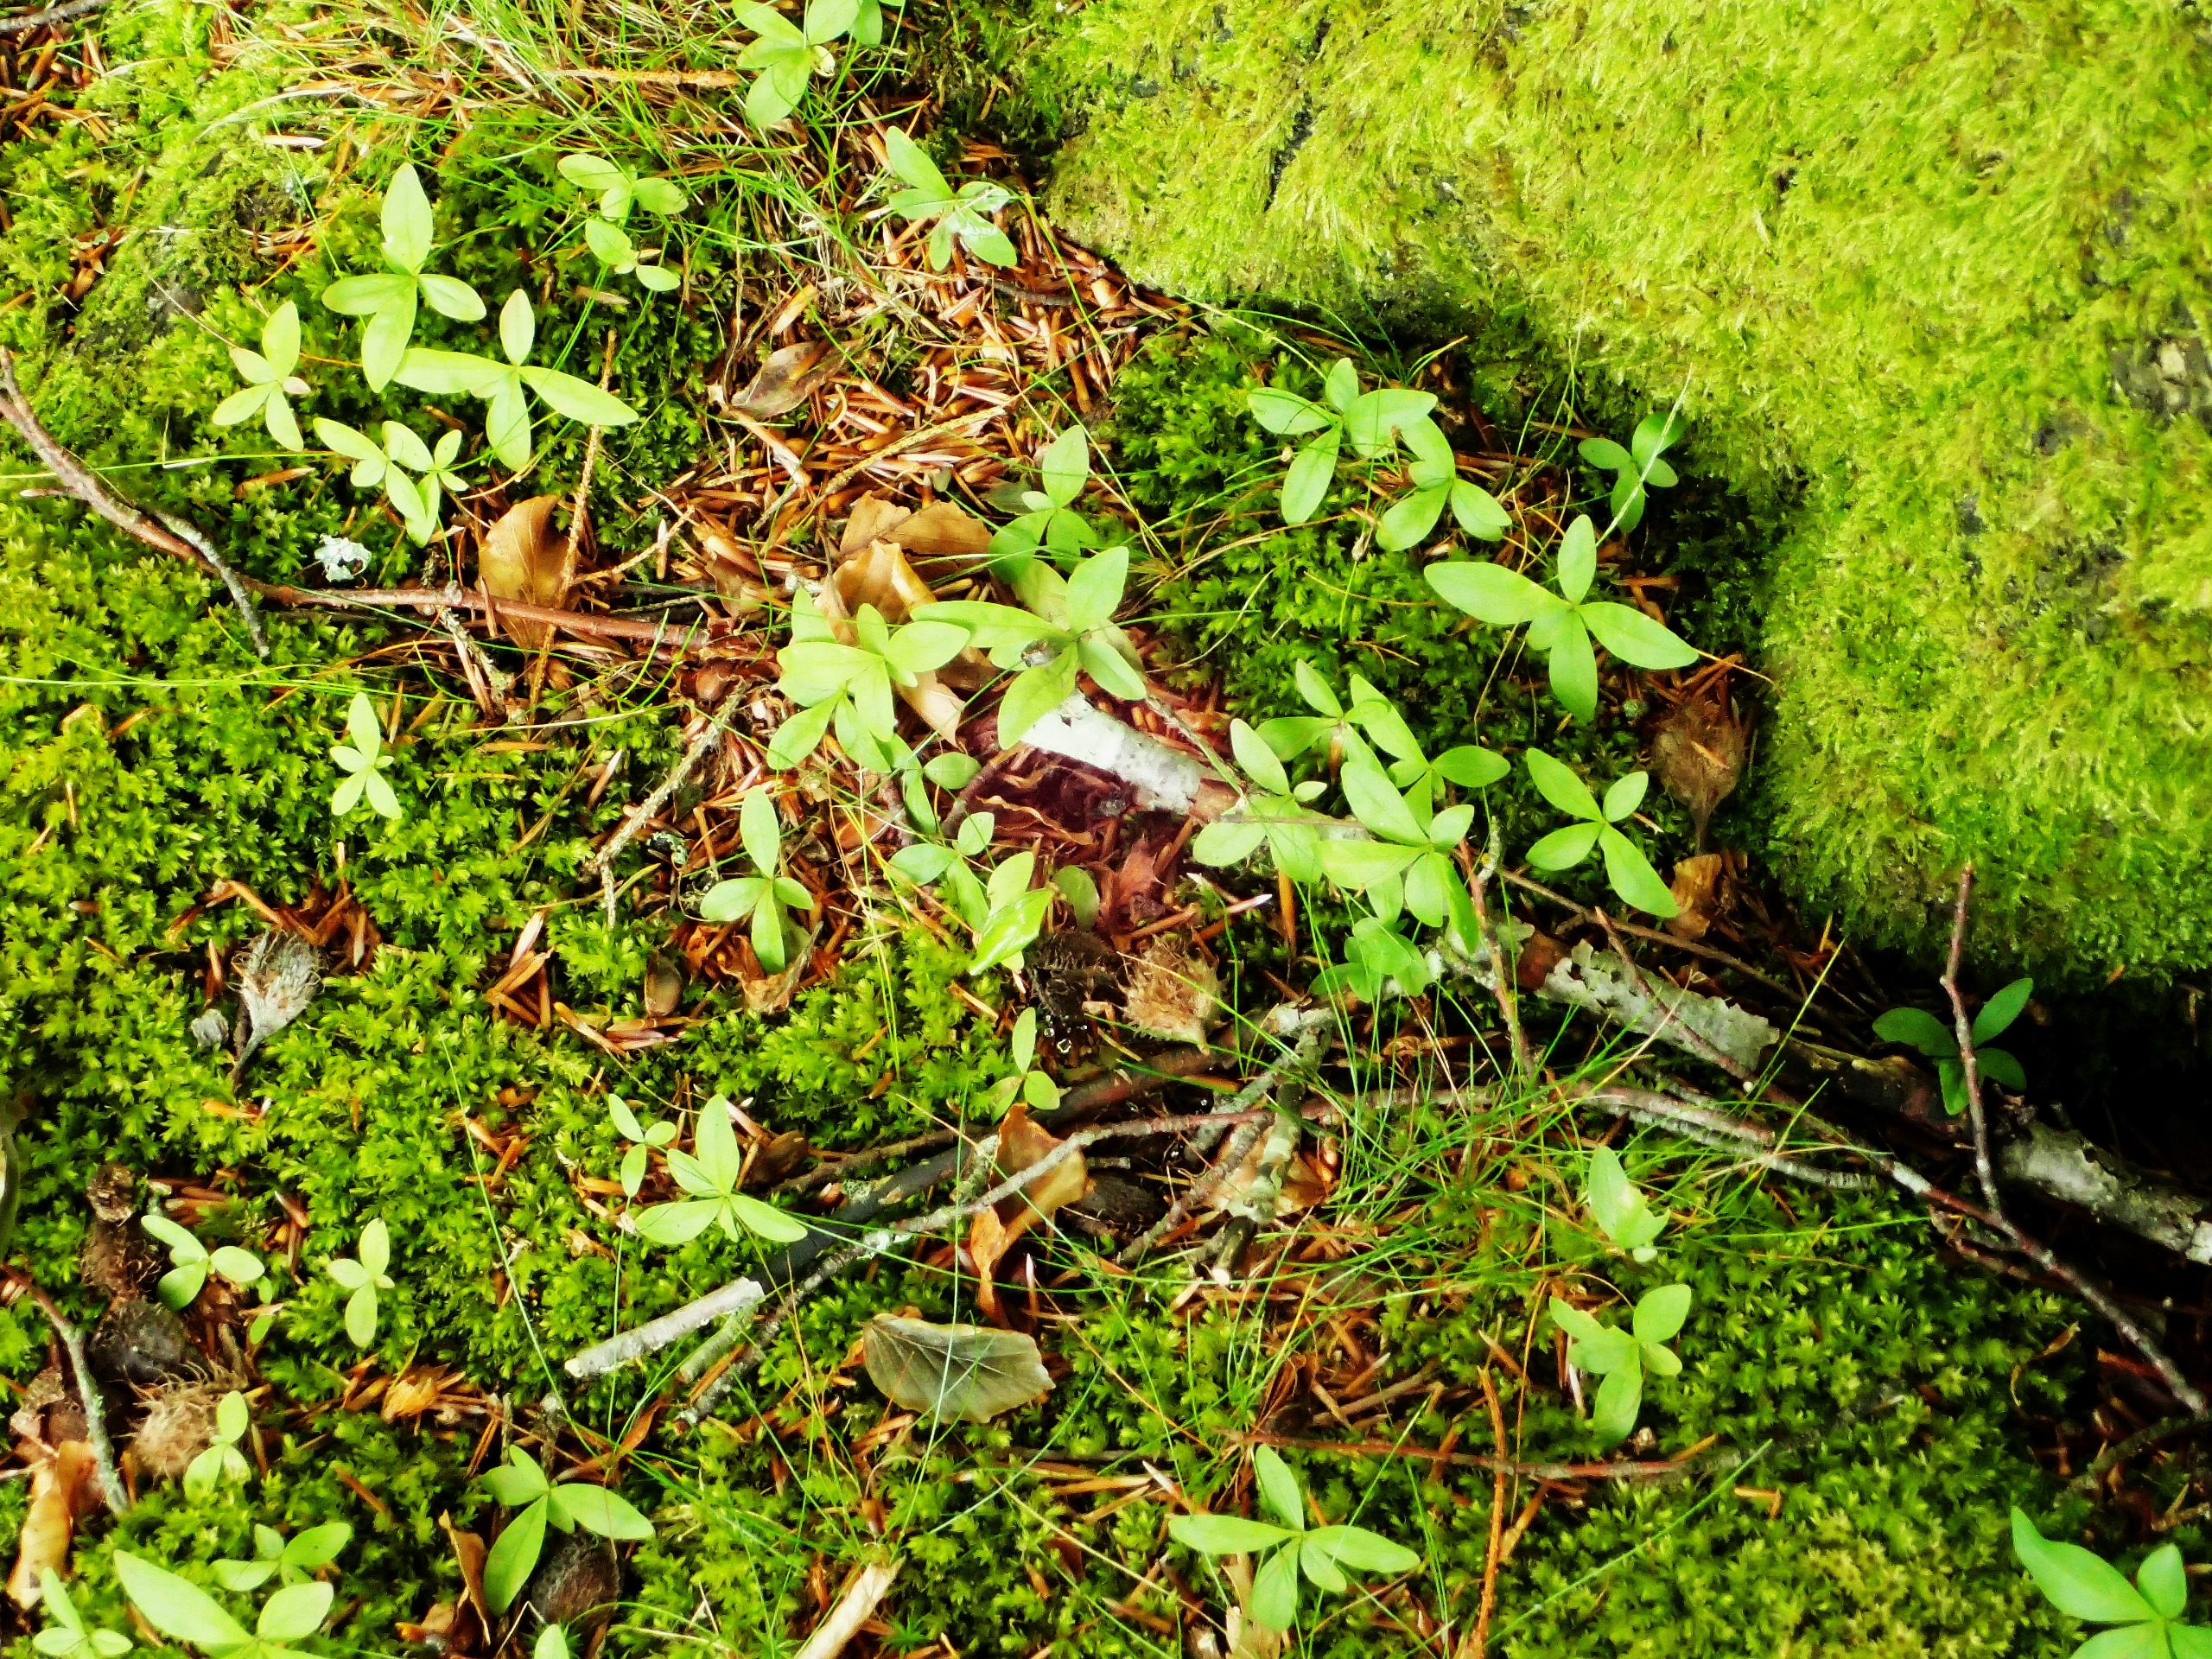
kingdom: Plantae
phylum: Tracheophyta
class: Magnoliopsida
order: Ericales
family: Primulaceae
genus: Lysimachia
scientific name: Lysimachia europaea
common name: Skovstjerne
